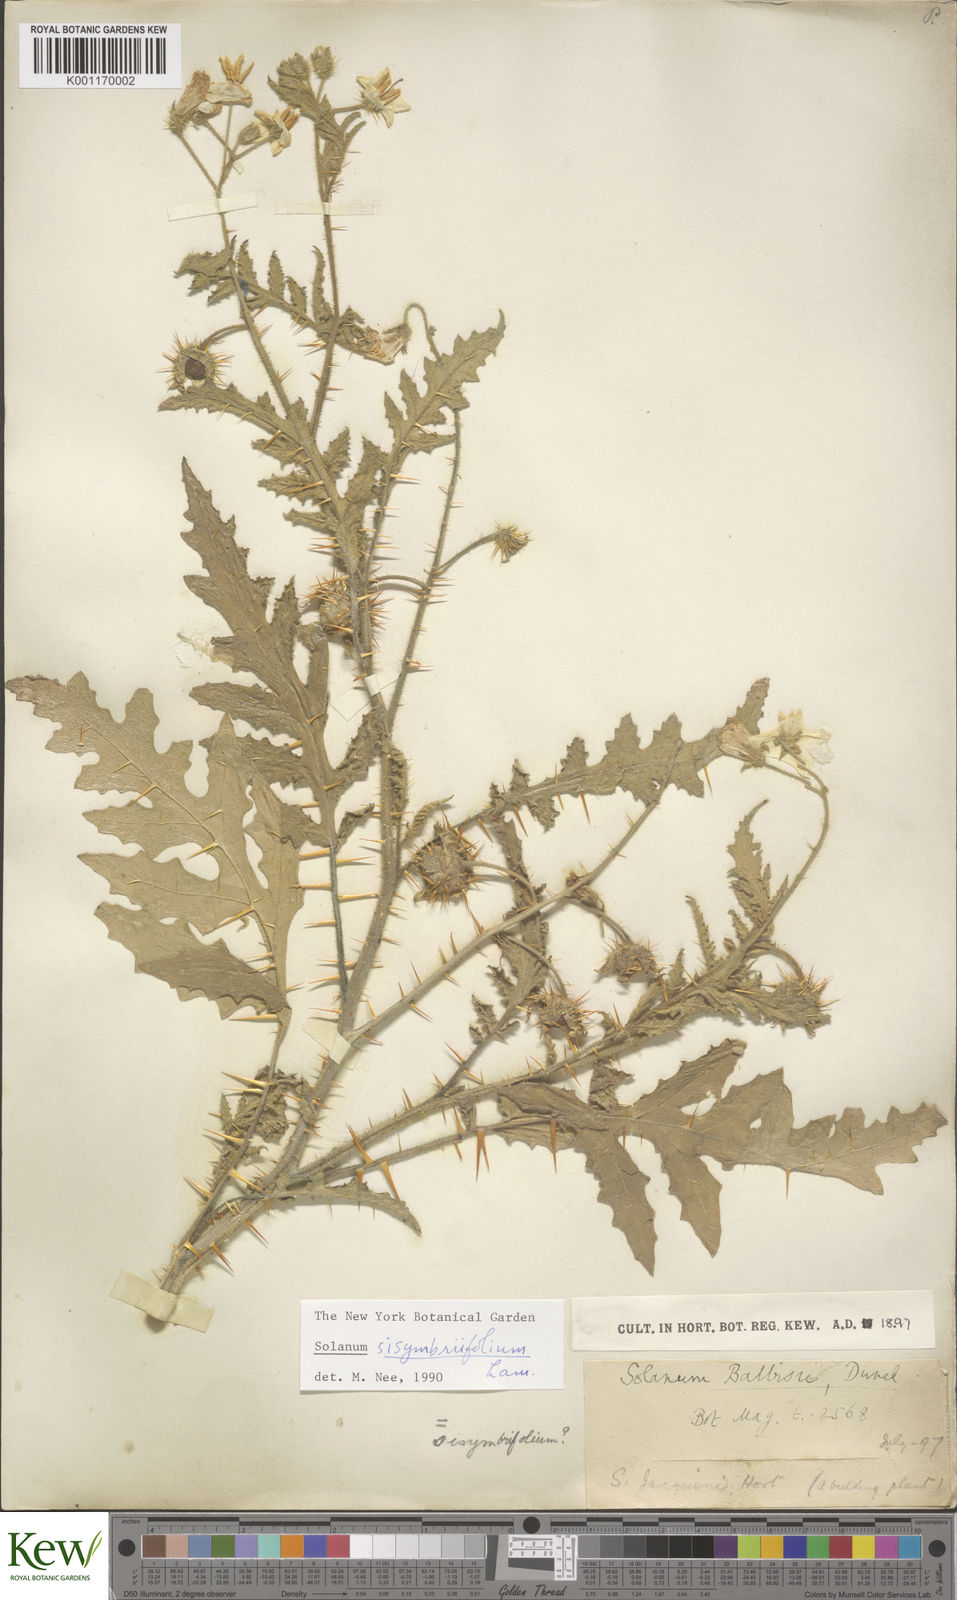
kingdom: Plantae
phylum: Tracheophyta
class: Magnoliopsida
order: Solanales
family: Solanaceae
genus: Solanum
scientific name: Solanum sisymbriifolium
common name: Red buffalo-bur
